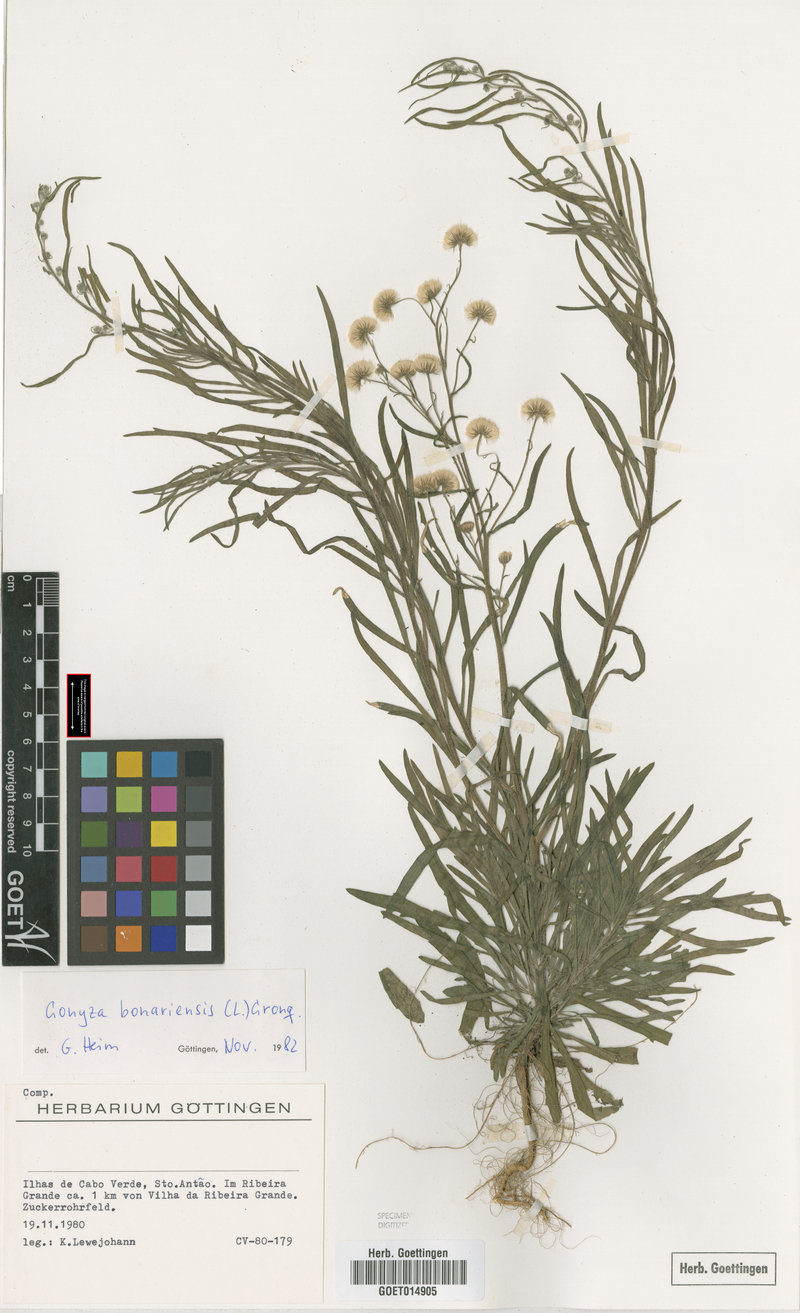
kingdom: Plantae
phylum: Tracheophyta
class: Magnoliopsida
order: Asterales
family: Asteraceae
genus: Erigeron
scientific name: Erigeron bonariensis
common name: Argentine fleabane
